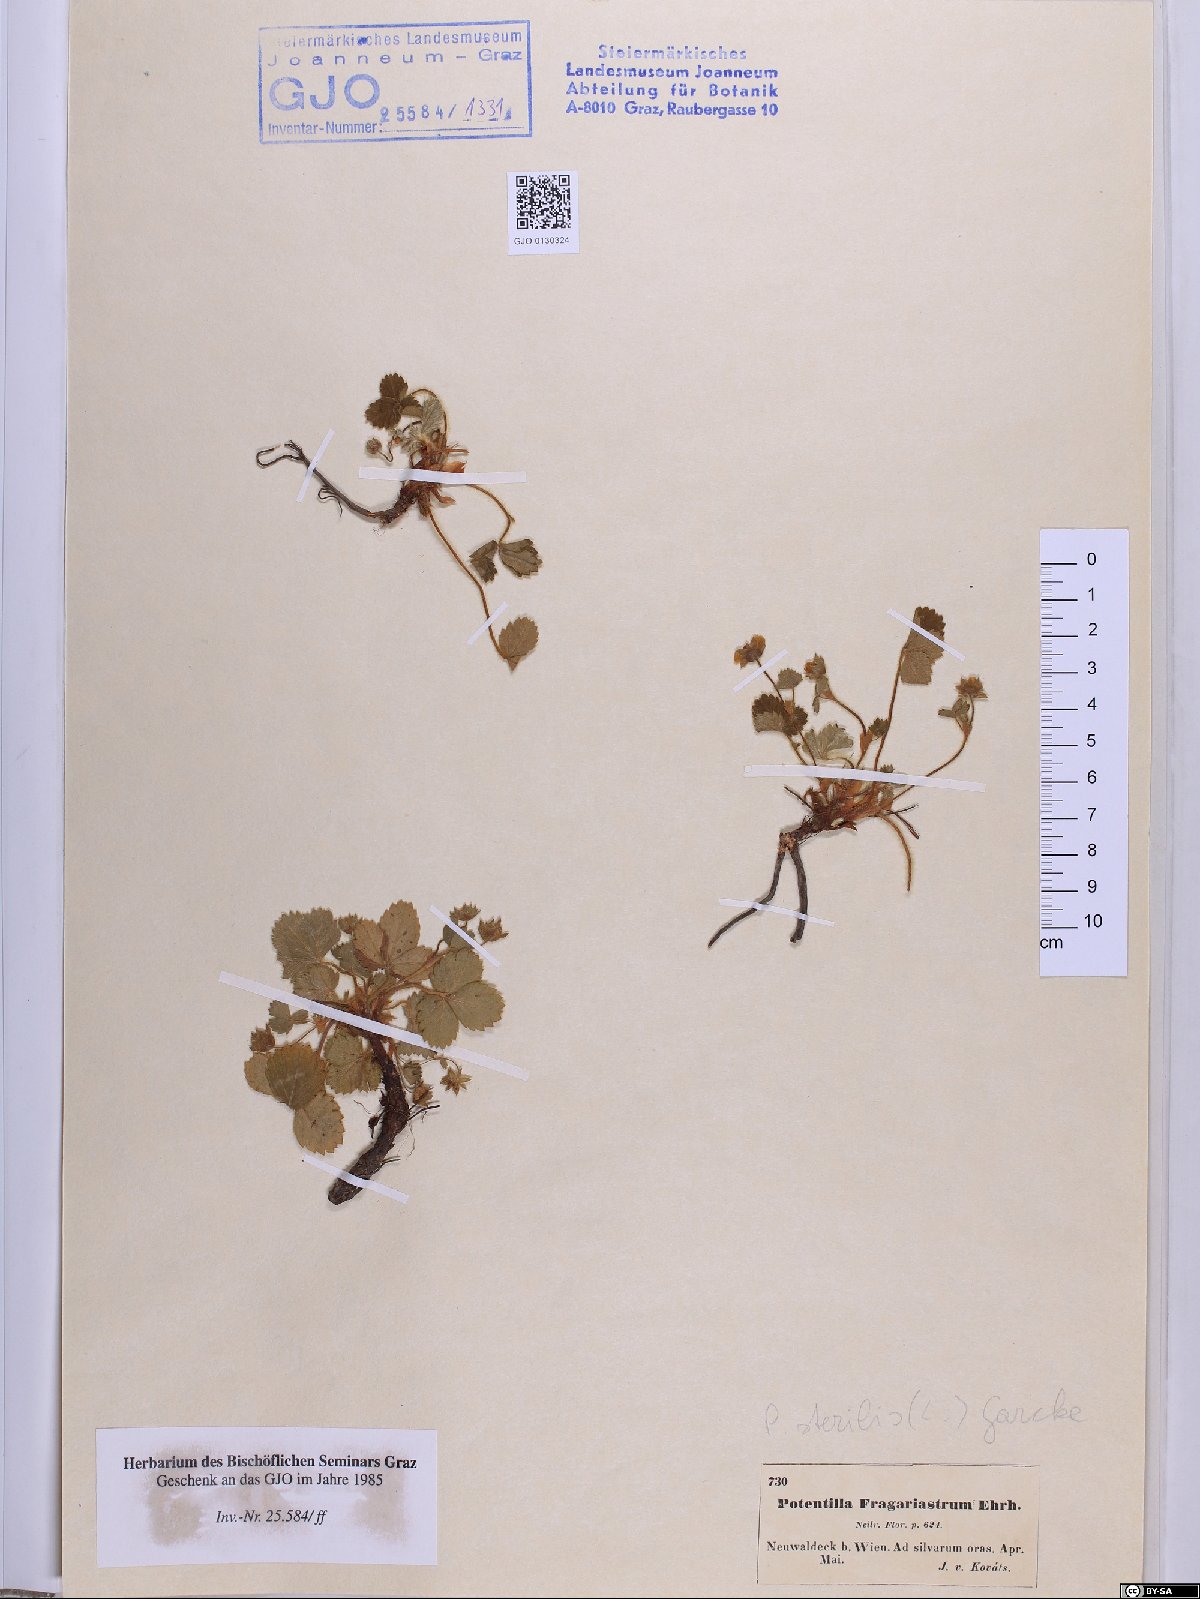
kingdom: Plantae
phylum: Tracheophyta
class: Magnoliopsida
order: Rosales
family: Rosaceae
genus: Potentilla
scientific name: Potentilla sterilis
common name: Barren strawberry
